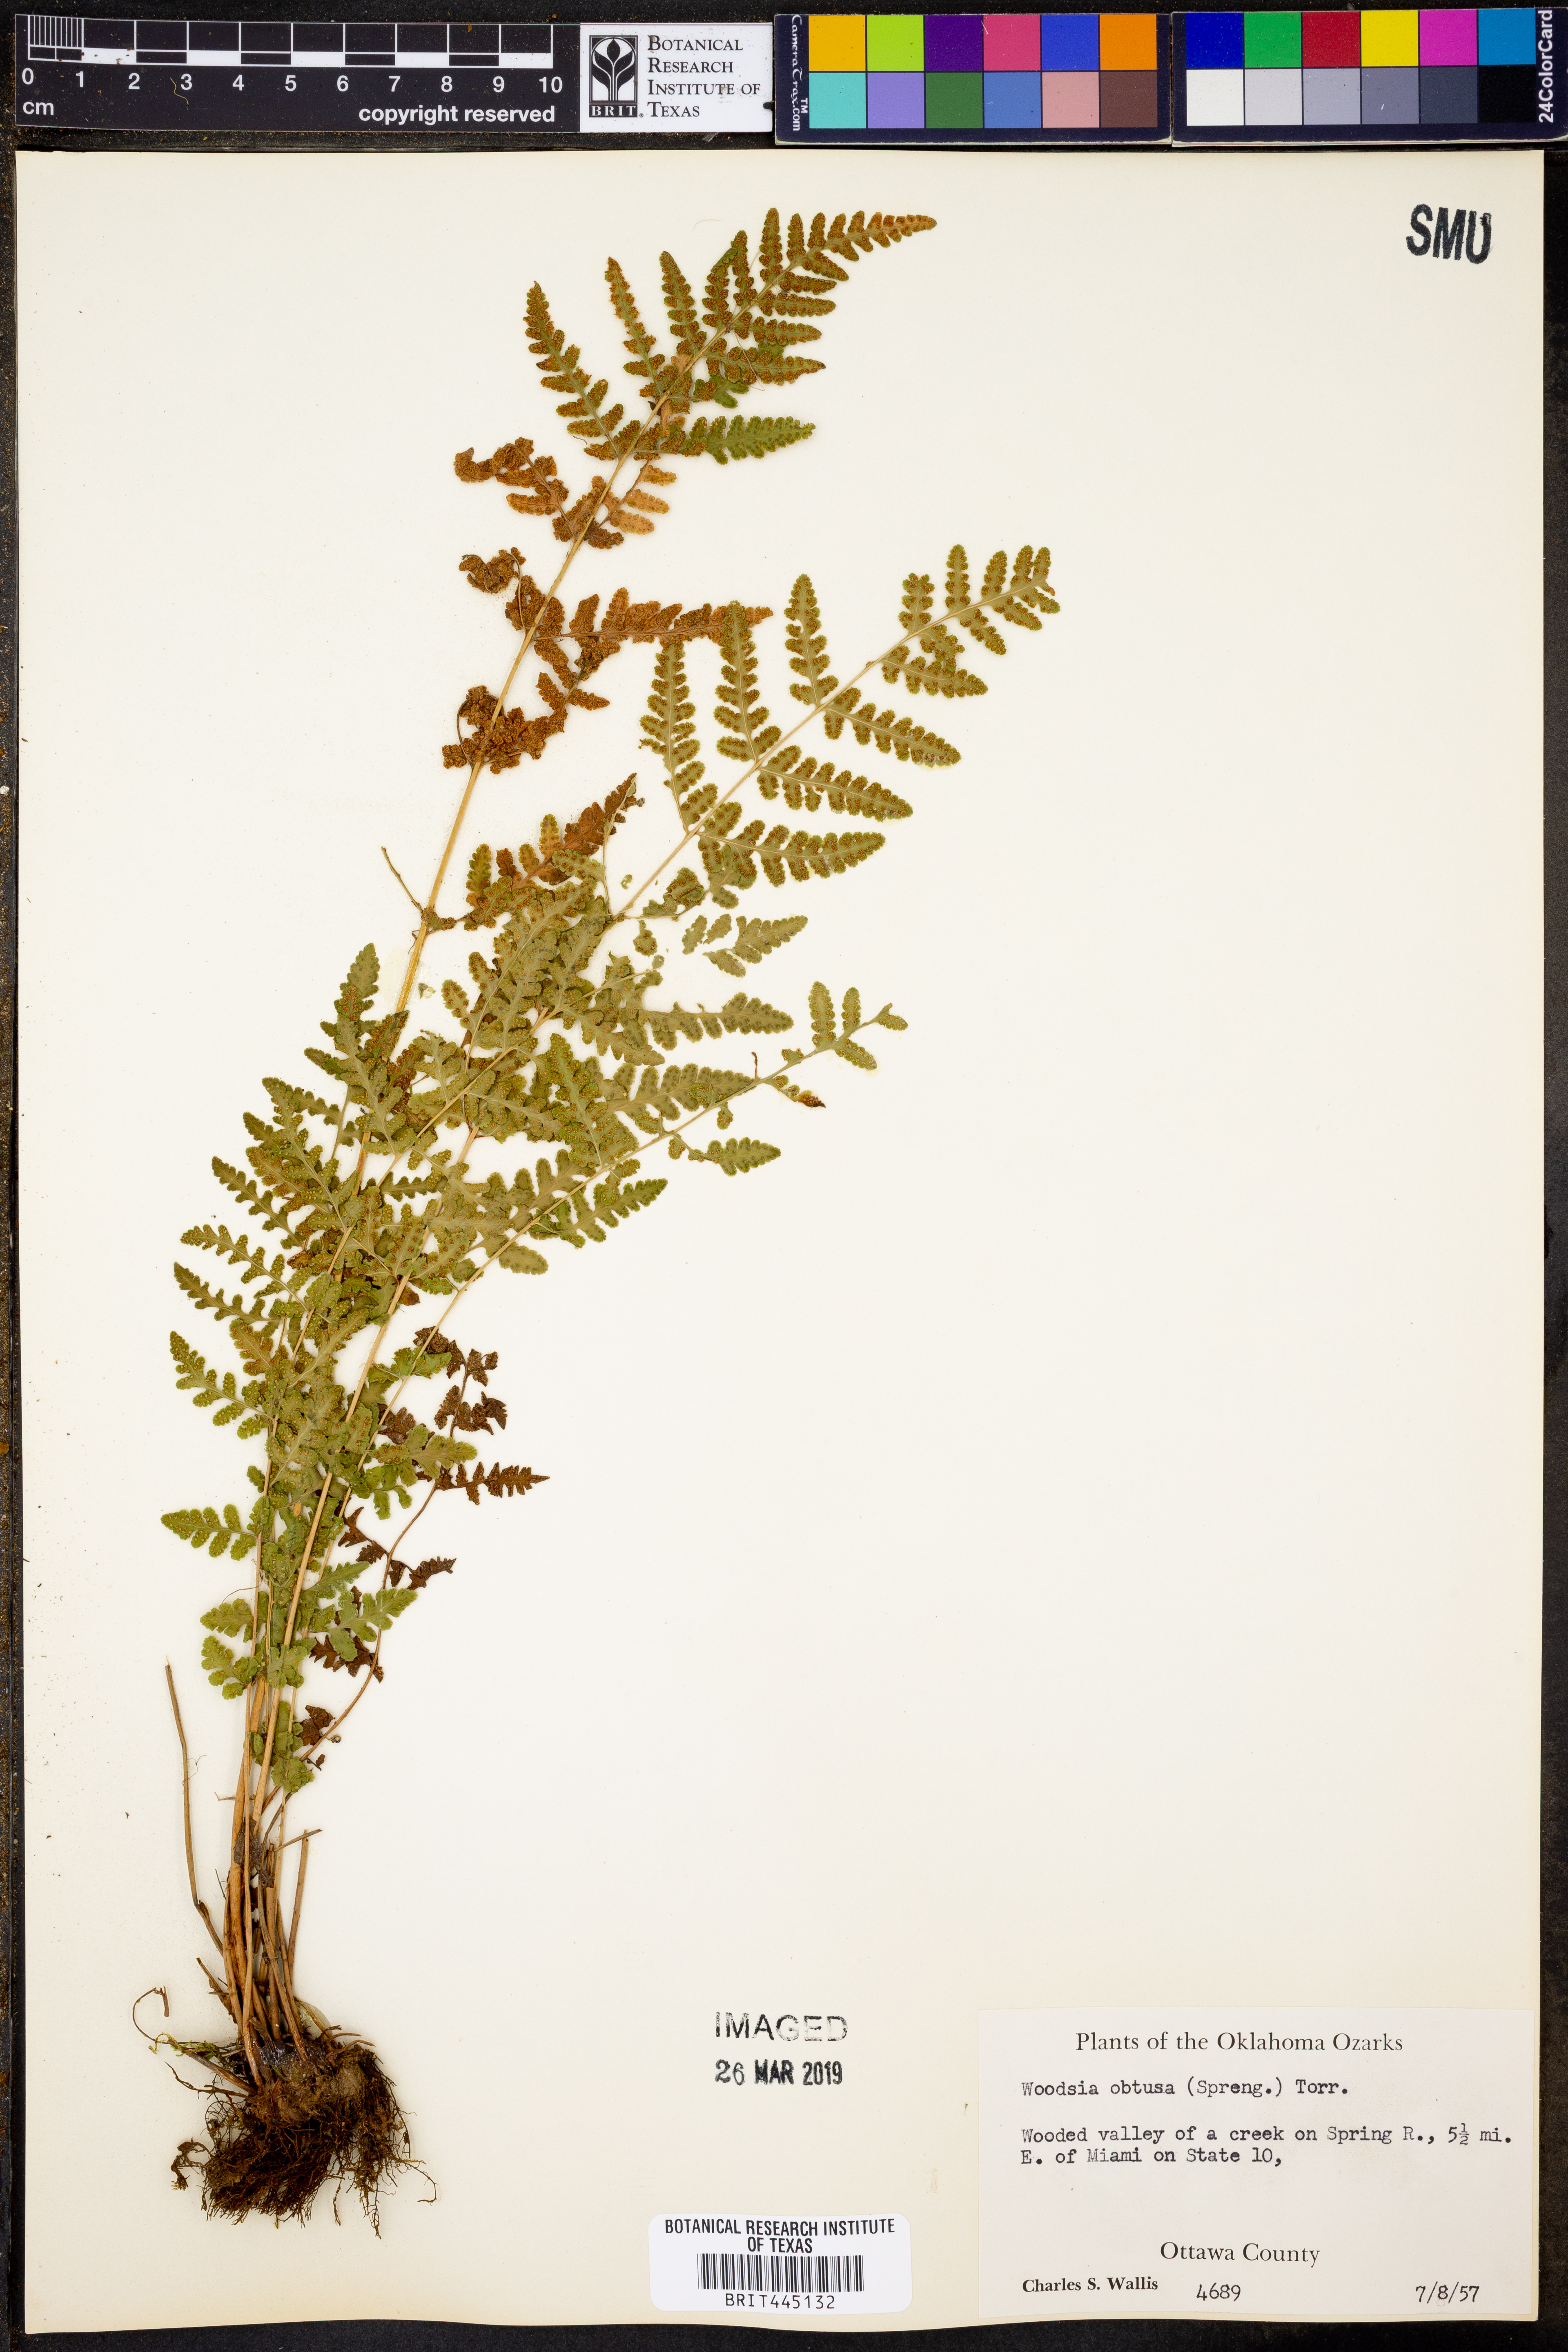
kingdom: Plantae
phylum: Tracheophyta
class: Polypodiopsida
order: Polypodiales
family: Woodsiaceae
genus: Physematium
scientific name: Physematium obtusum
